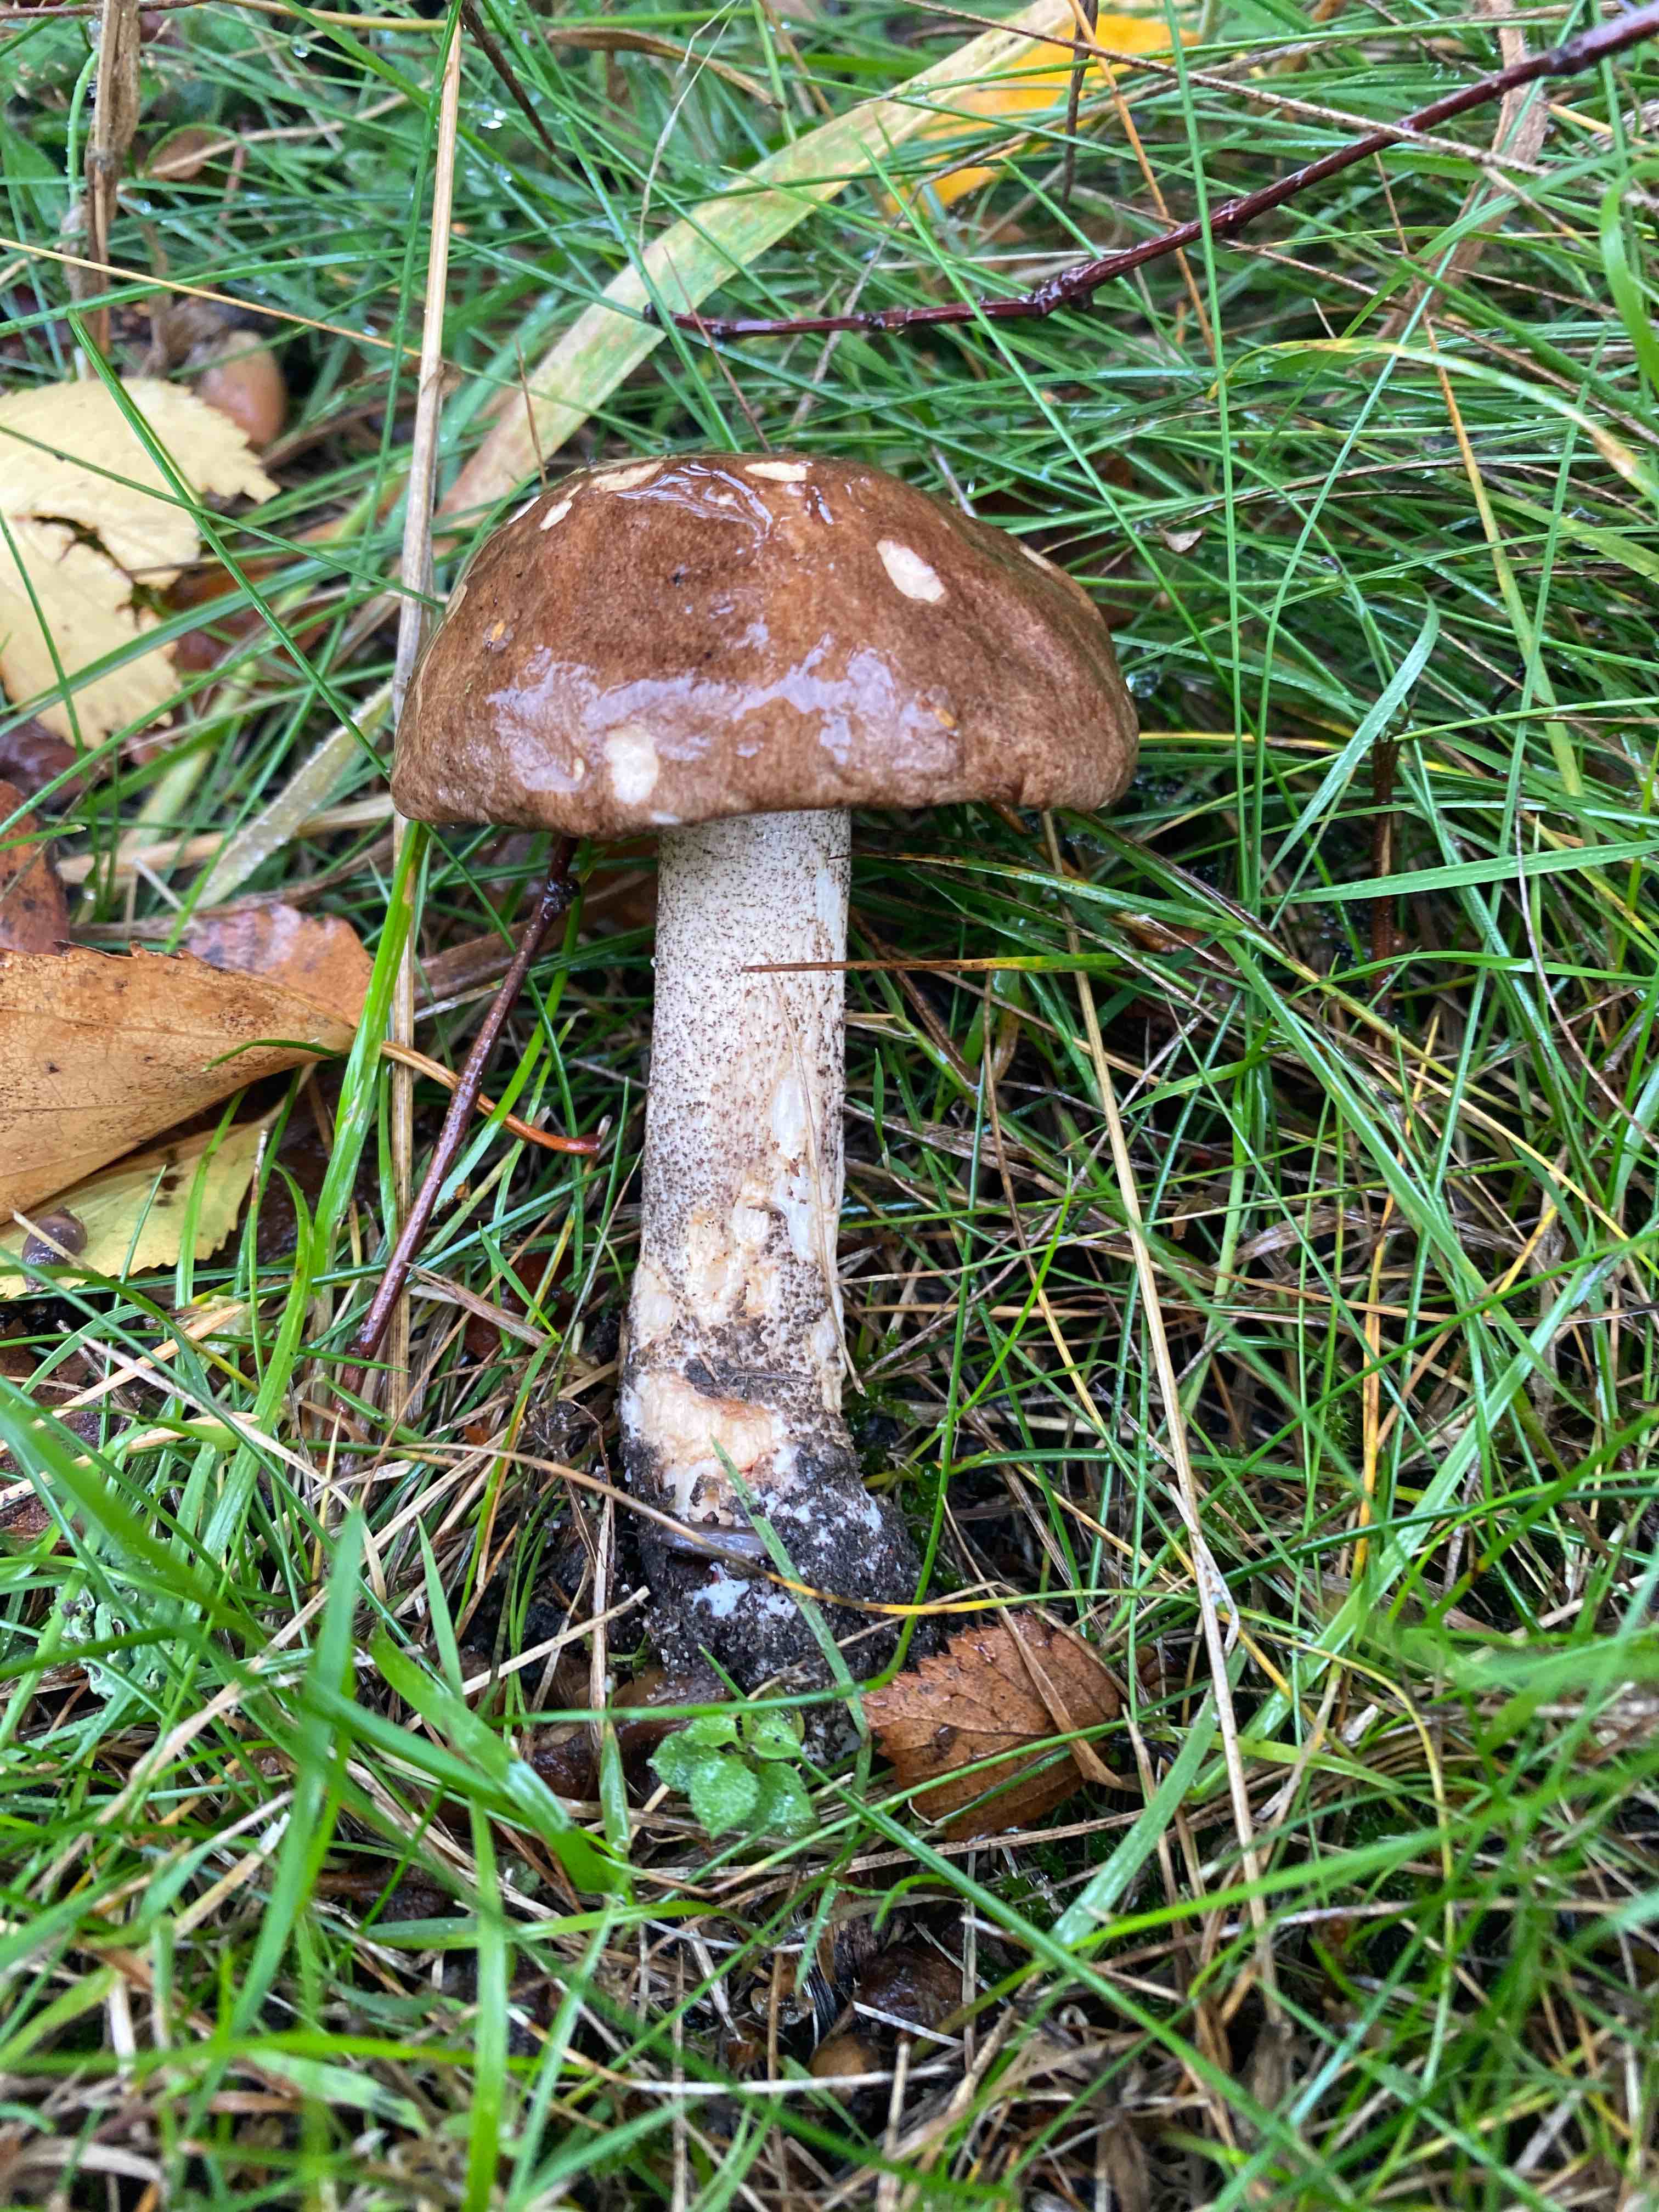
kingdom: Fungi
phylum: Basidiomycota
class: Agaricomycetes
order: Boletales
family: Boletaceae
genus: Leccinum
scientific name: Leccinum scabrum
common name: brun skælrørhat
